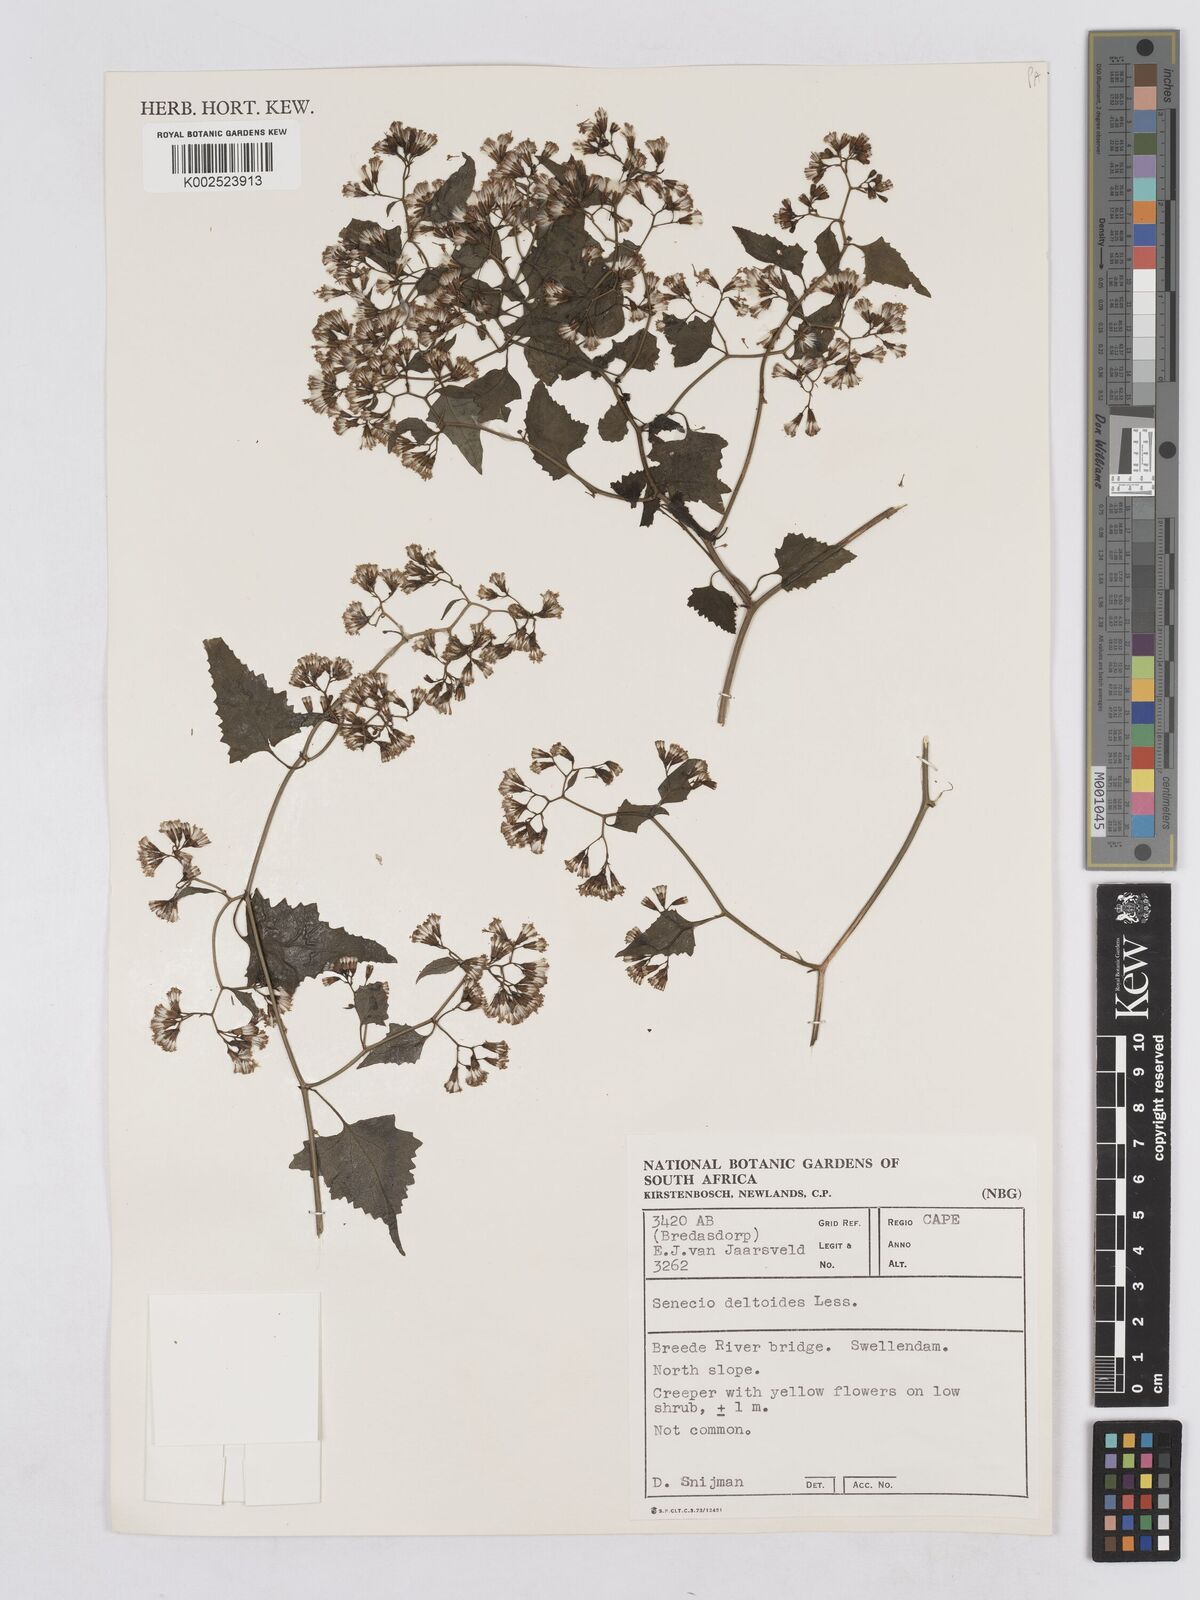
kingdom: Plantae
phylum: Tracheophyta
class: Magnoliopsida
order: Asterales
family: Asteraceae
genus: Senecio
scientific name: Senecio deltoideus
